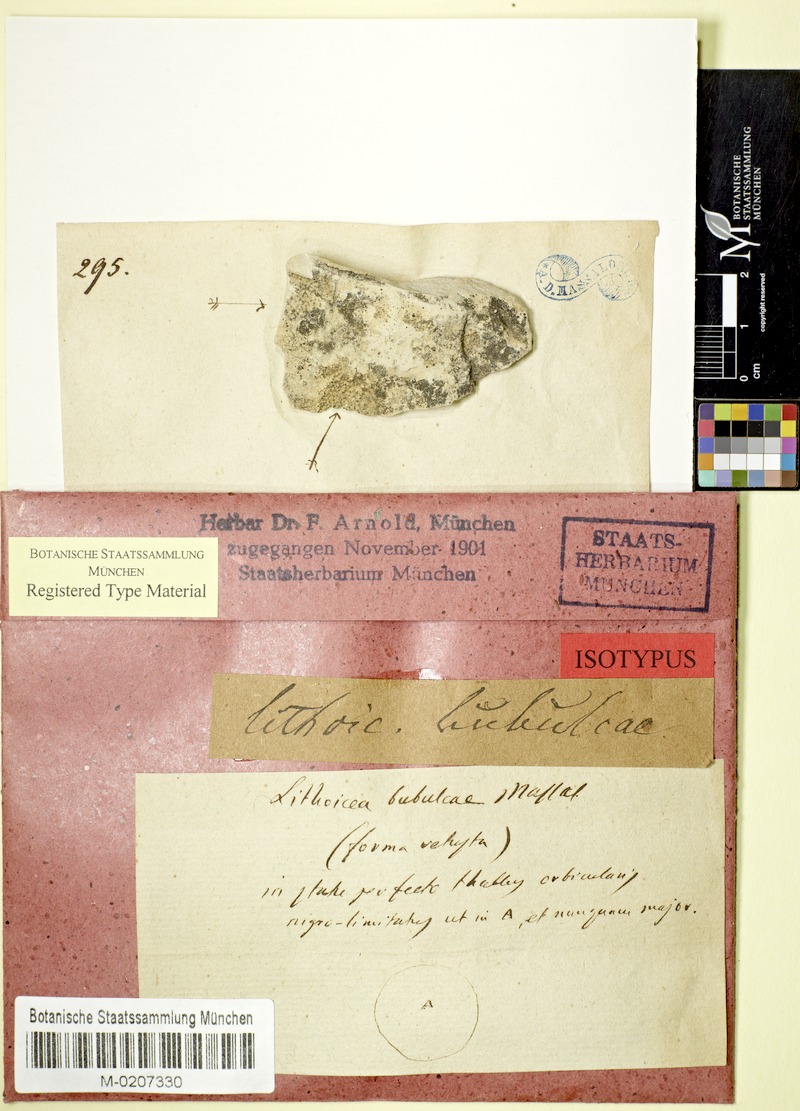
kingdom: Fungi
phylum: Ascomycota
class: Eurotiomycetes
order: Verrucariales
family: Verrucariaceae
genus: Thelidium
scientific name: Thelidium zwackhii
